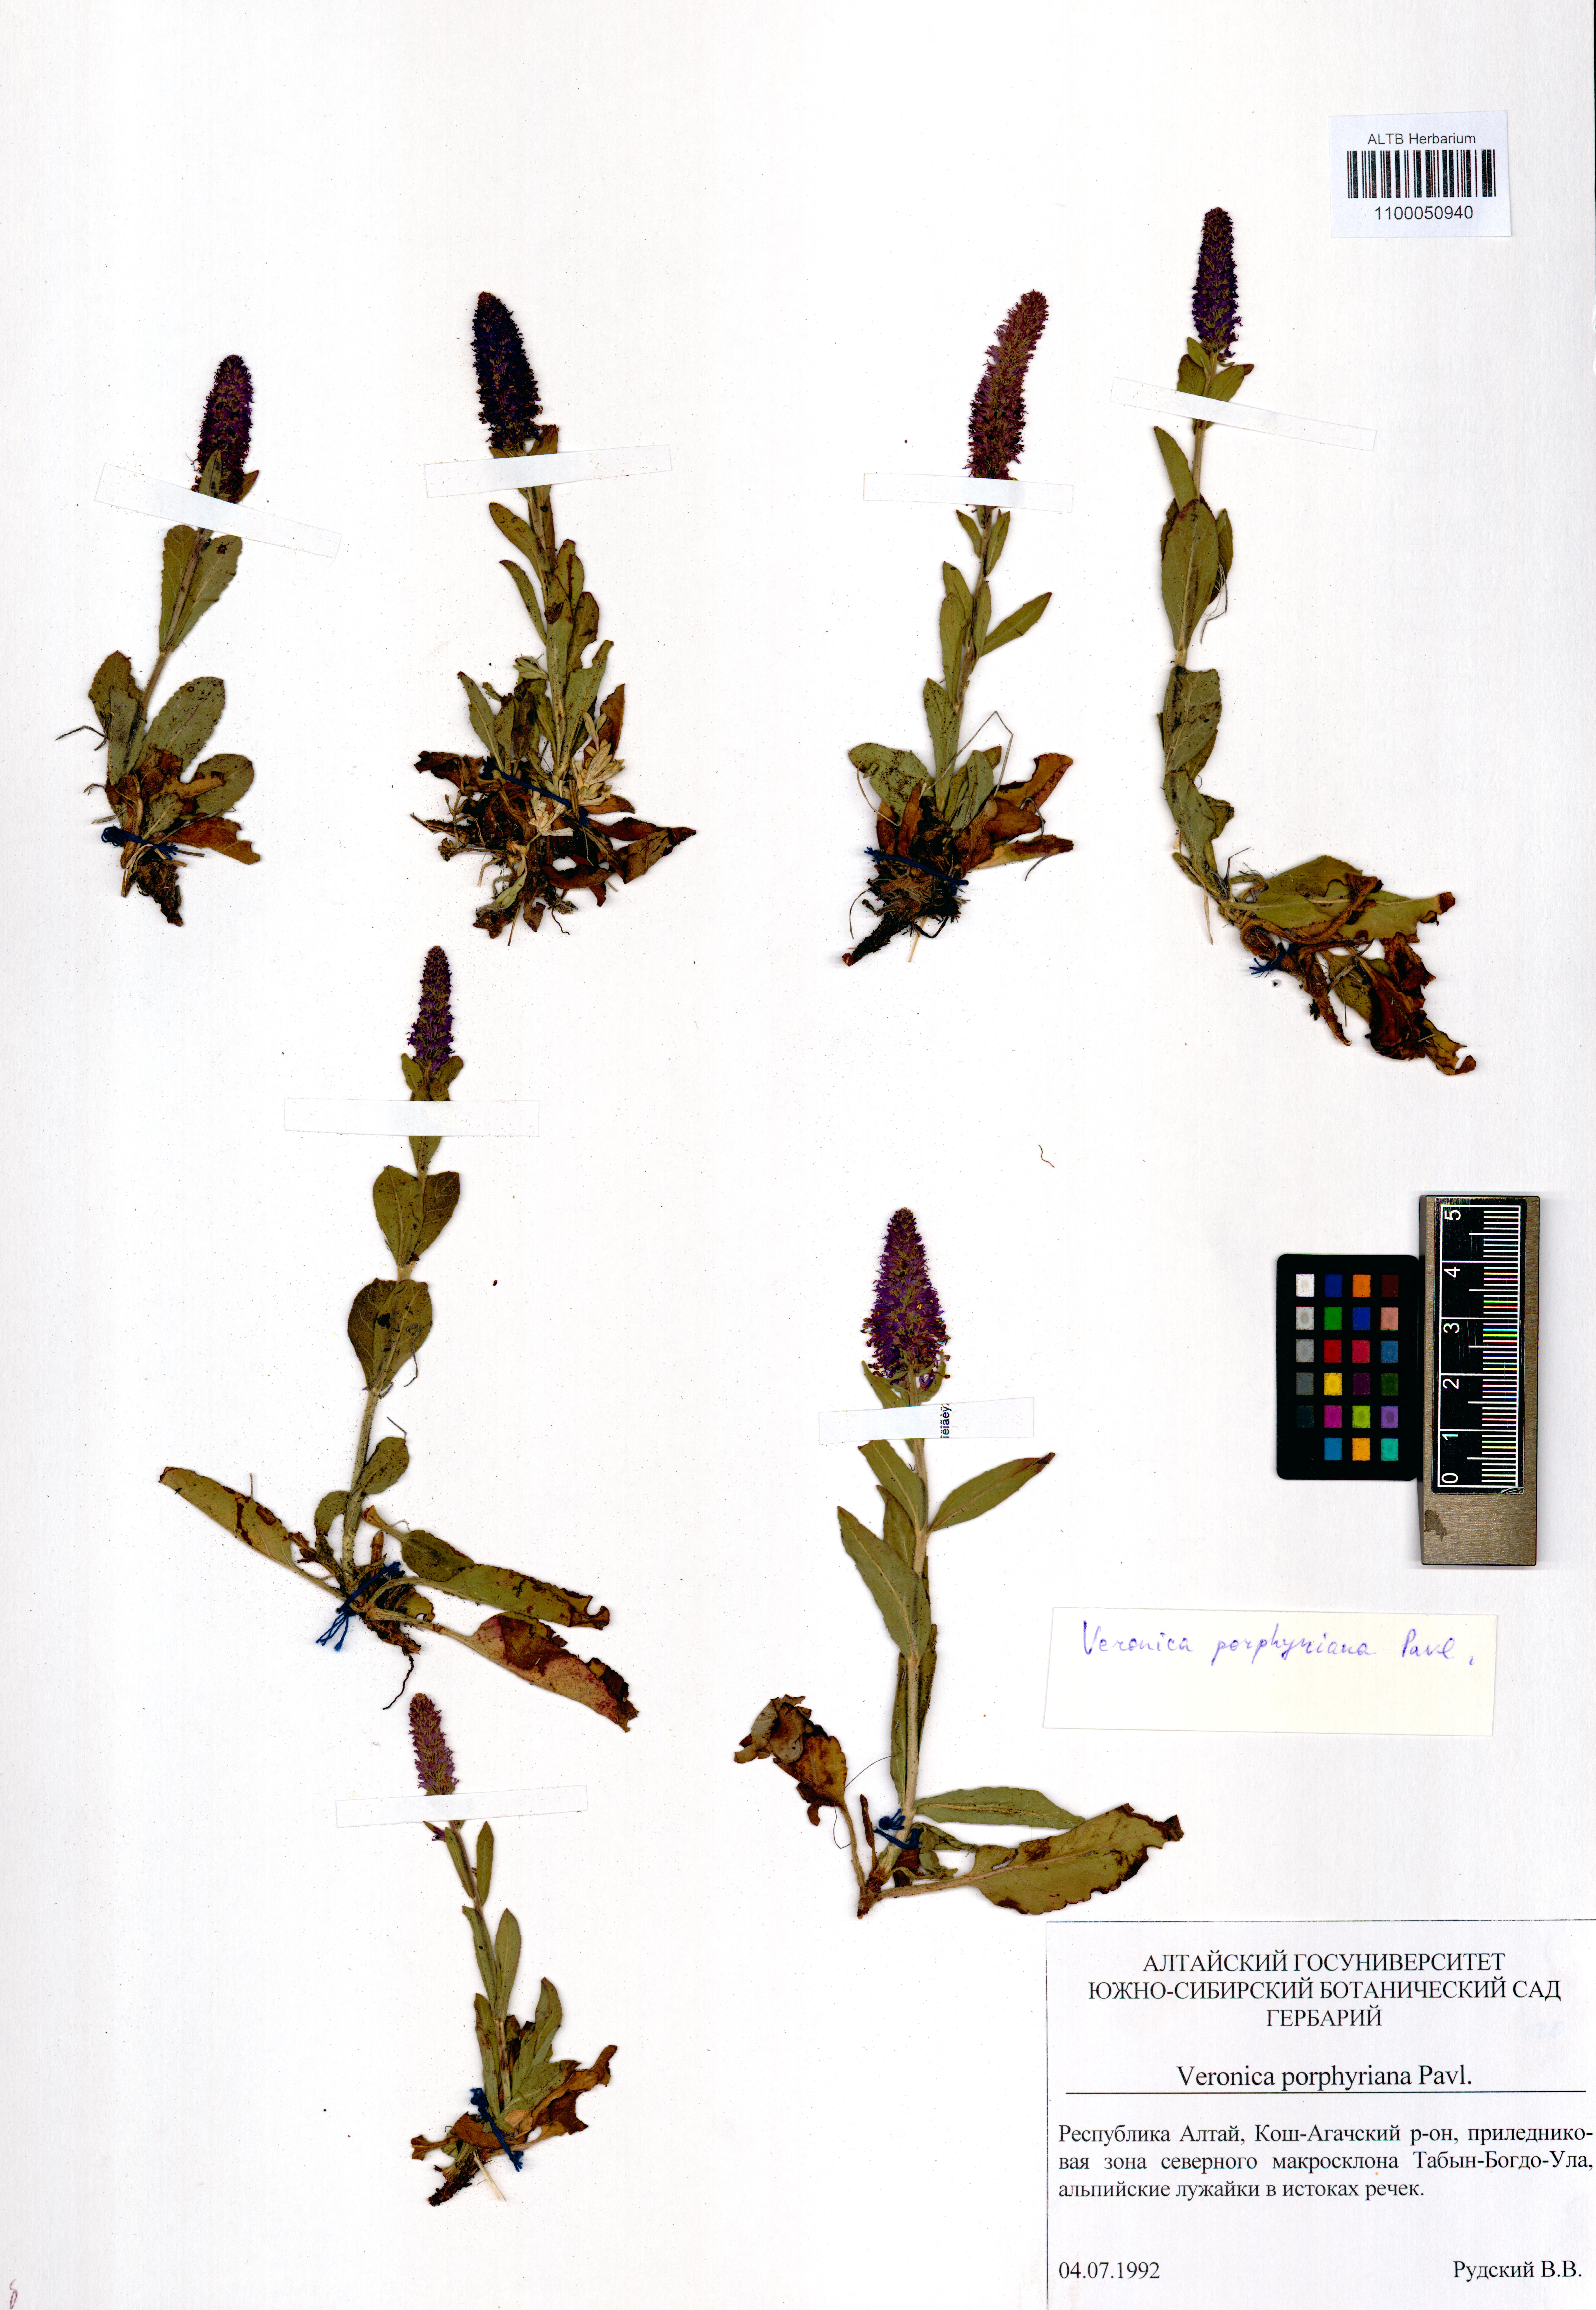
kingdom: Plantae
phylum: Tracheophyta
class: Magnoliopsida
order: Lamiales
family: Plantaginaceae
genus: Veronica
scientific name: Veronica porphyriana
